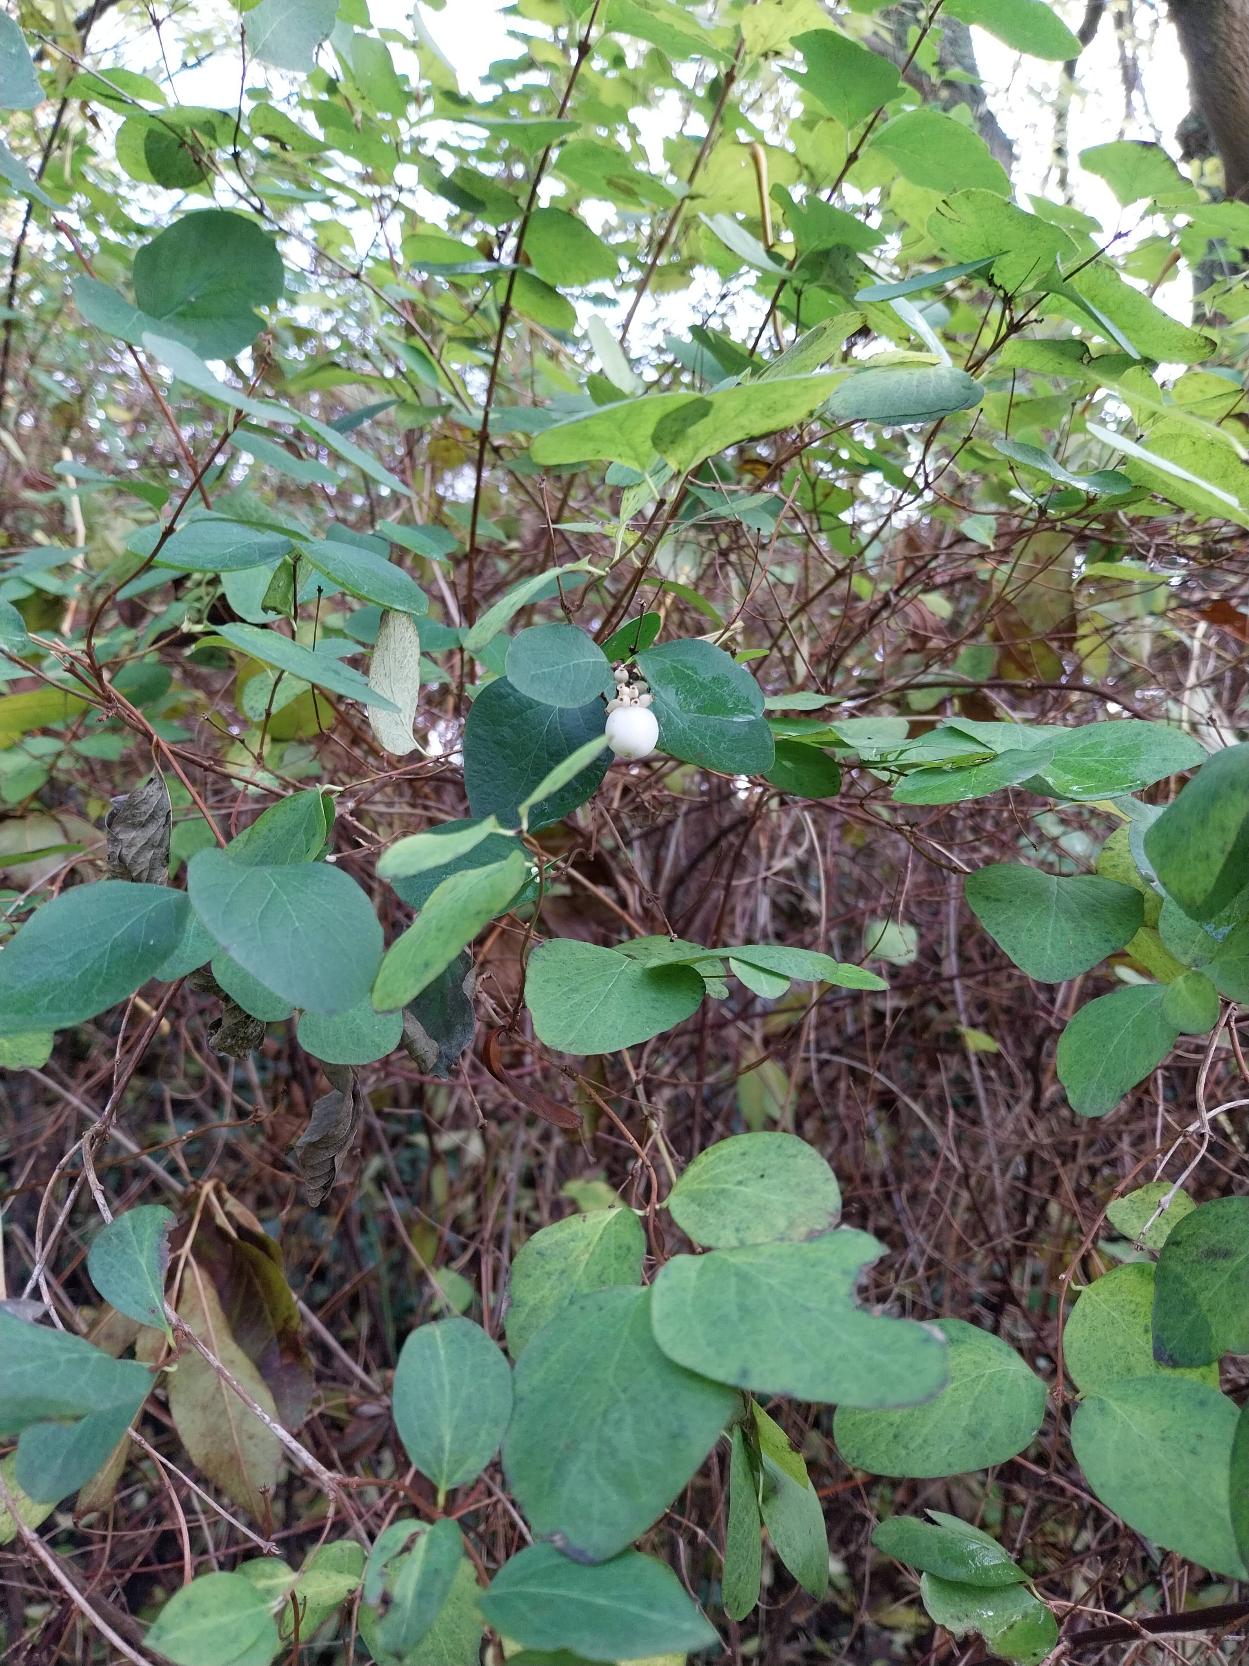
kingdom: Plantae
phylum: Tracheophyta
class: Magnoliopsida
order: Dipsacales
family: Caprifoliaceae
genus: Symphoricarpos
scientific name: Symphoricarpos albus
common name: Almindelig snebær
